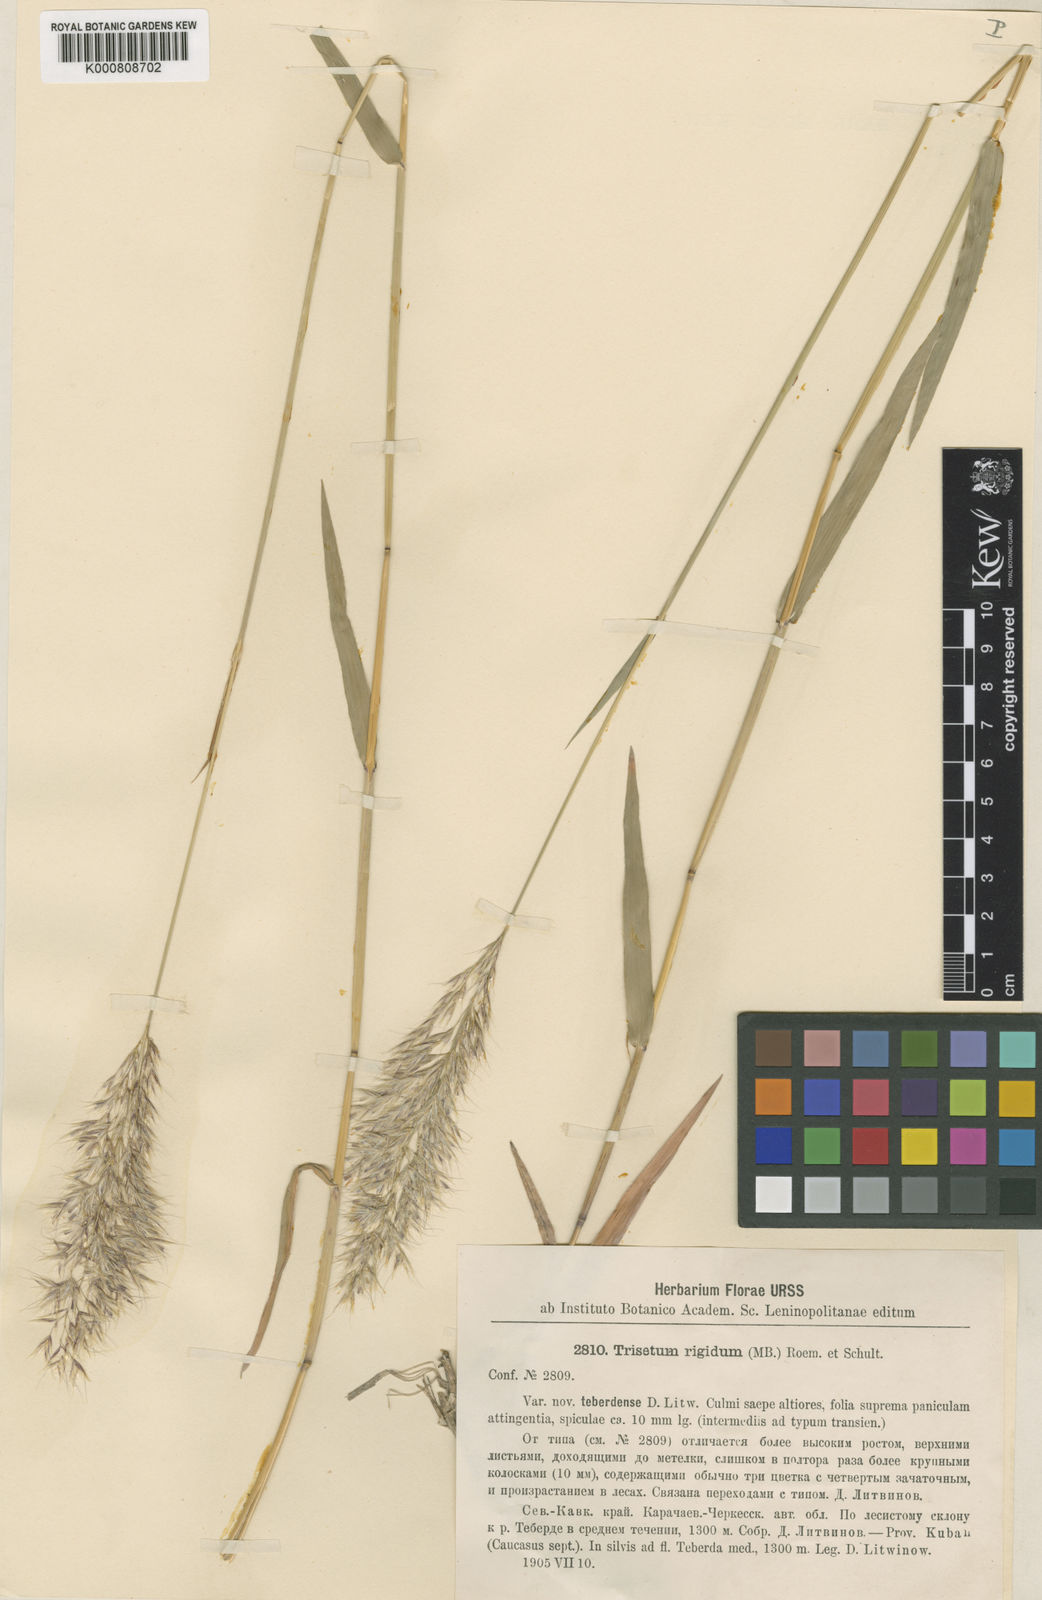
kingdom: Plantae
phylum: Tracheophyta
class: Liliopsida
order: Poales
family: Poaceae
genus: Trisetum
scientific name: Trisetum rigidum
